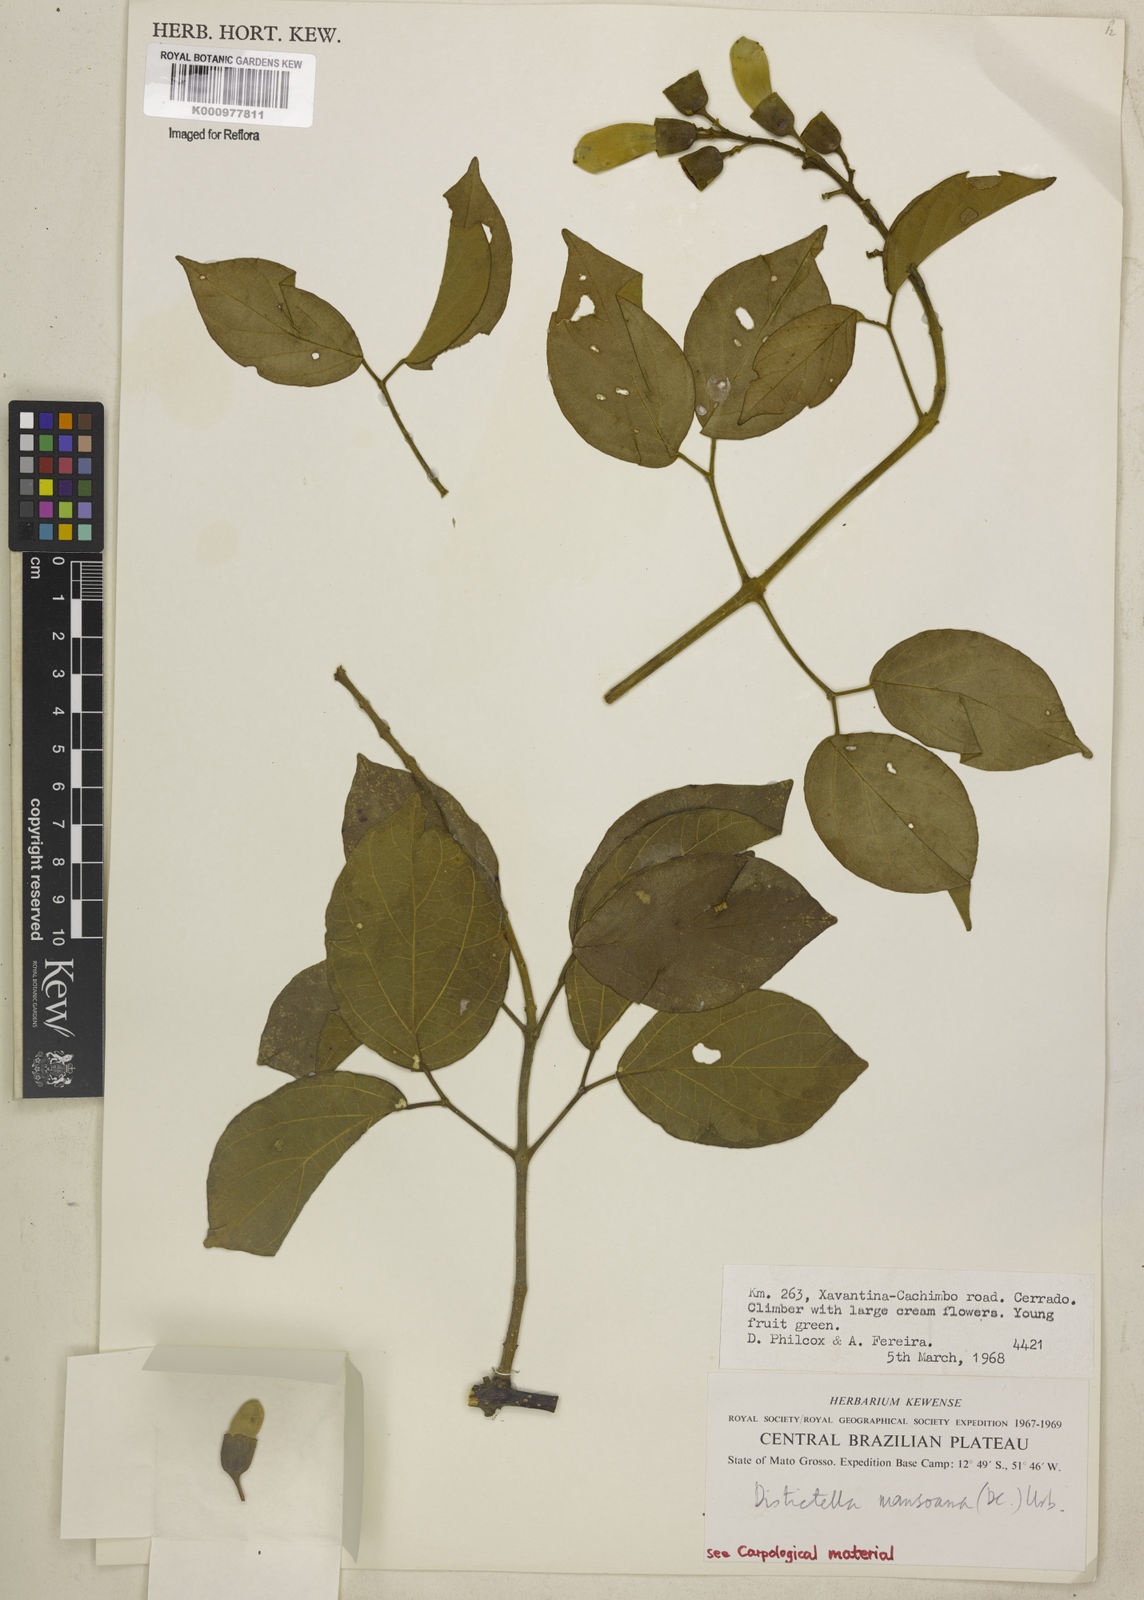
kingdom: Plantae
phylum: Tracheophyta
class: Magnoliopsida
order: Lamiales
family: Bignoniaceae
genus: Amphilophium
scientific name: Amphilophium mansoanum
